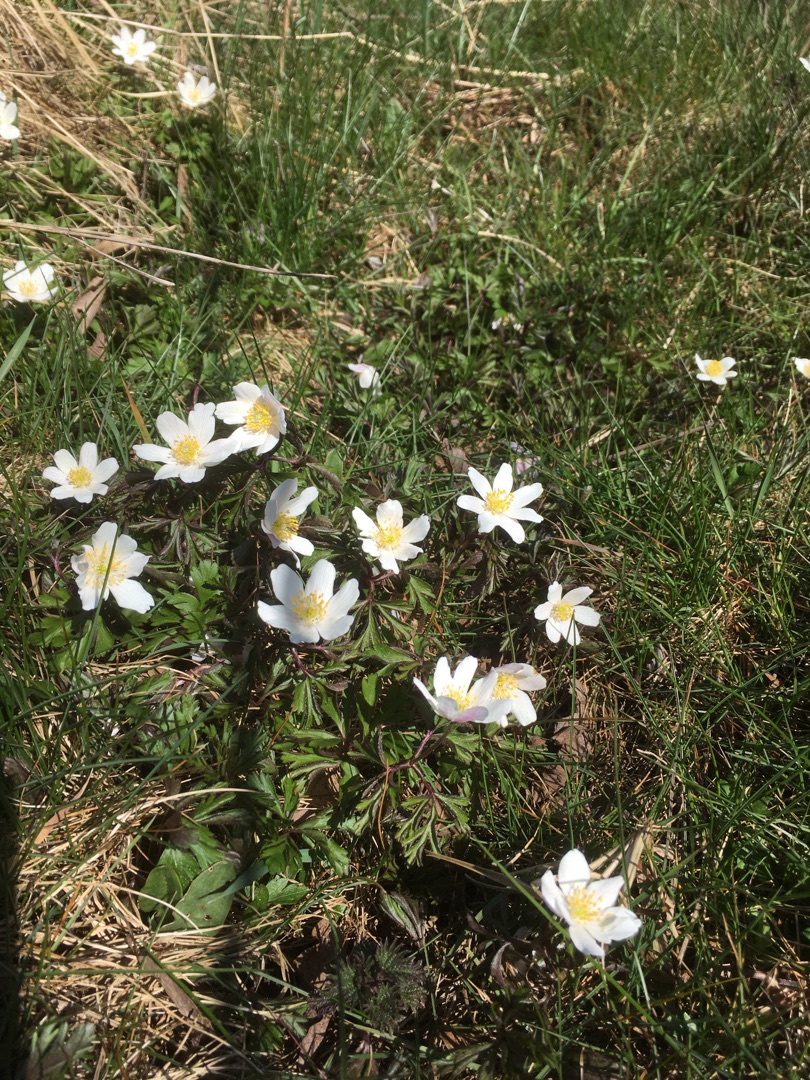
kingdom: Plantae
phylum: Tracheophyta
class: Magnoliopsida
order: Ranunculales
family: Ranunculaceae
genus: Anemone
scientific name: Anemone nemorosa
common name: Hvid anemone
